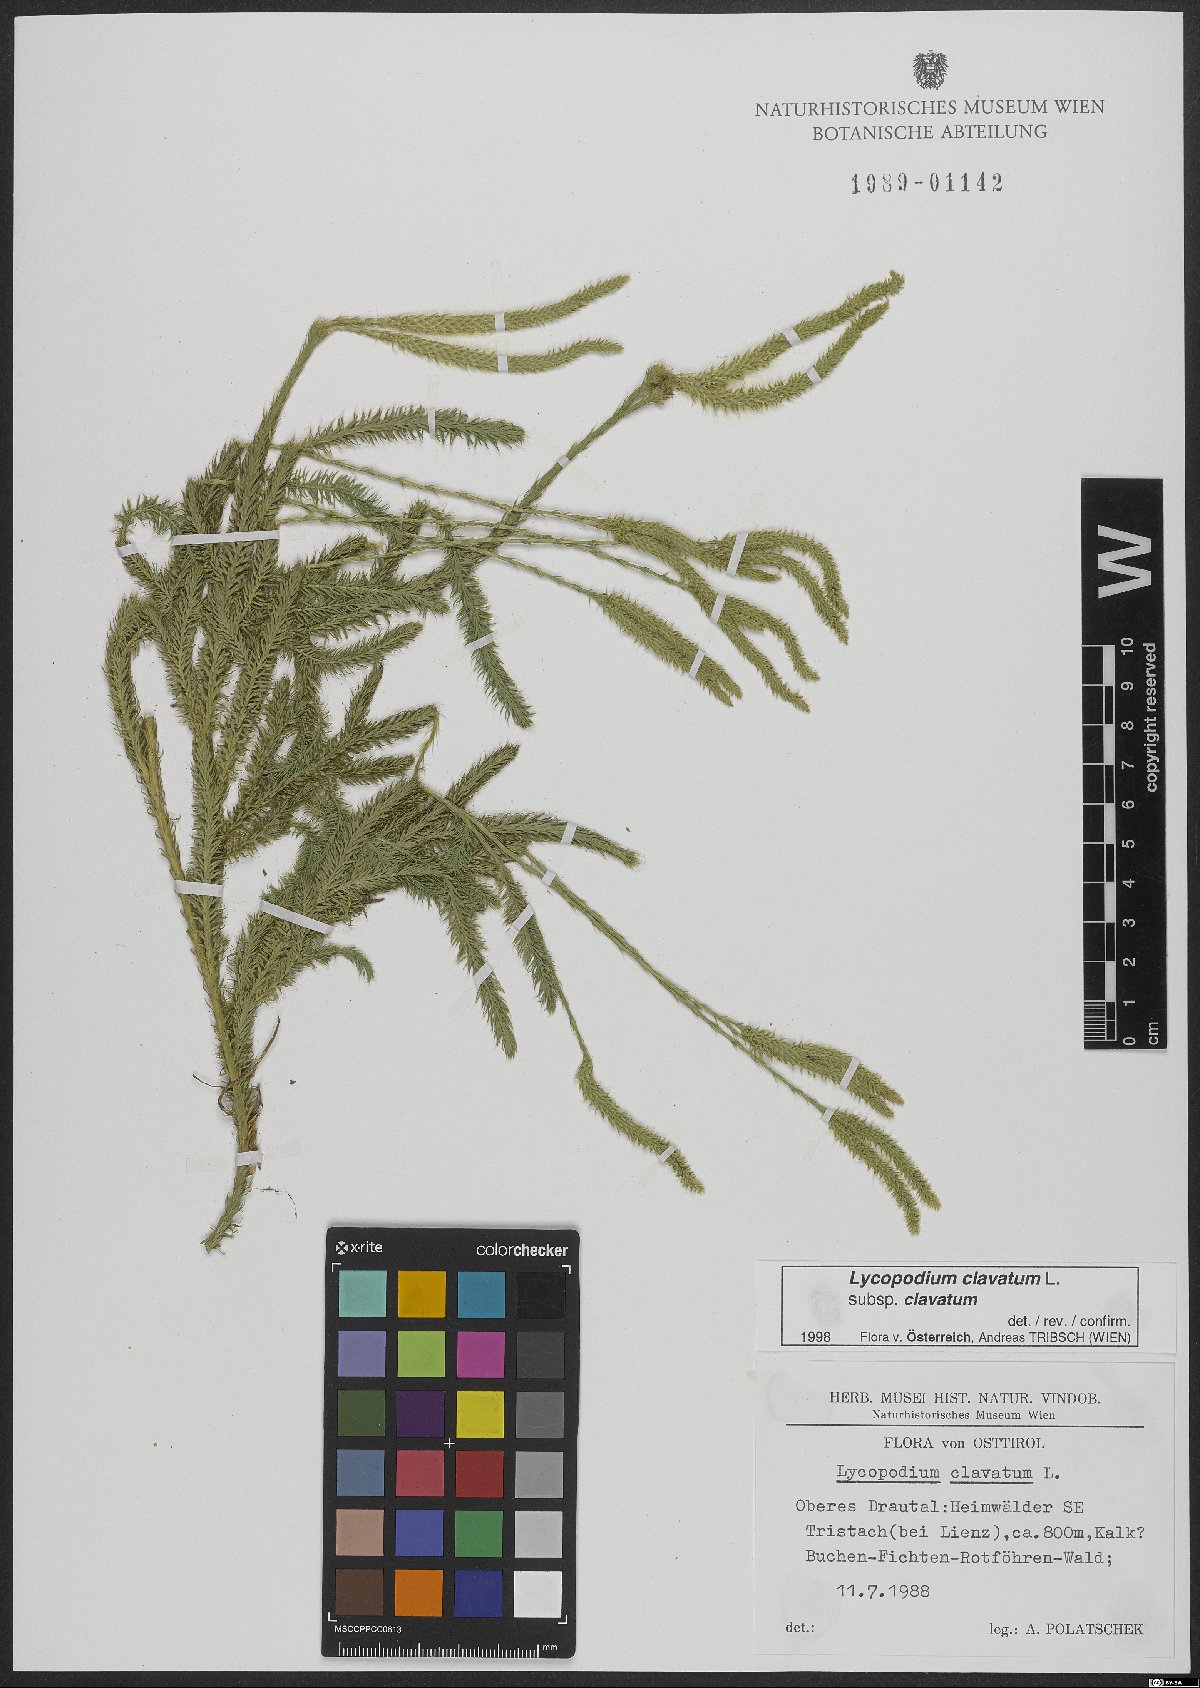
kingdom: Plantae
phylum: Tracheophyta
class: Lycopodiopsida
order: Lycopodiales
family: Lycopodiaceae
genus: Lycopodium
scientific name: Lycopodium clavatum
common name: Stag's-horn clubmoss
